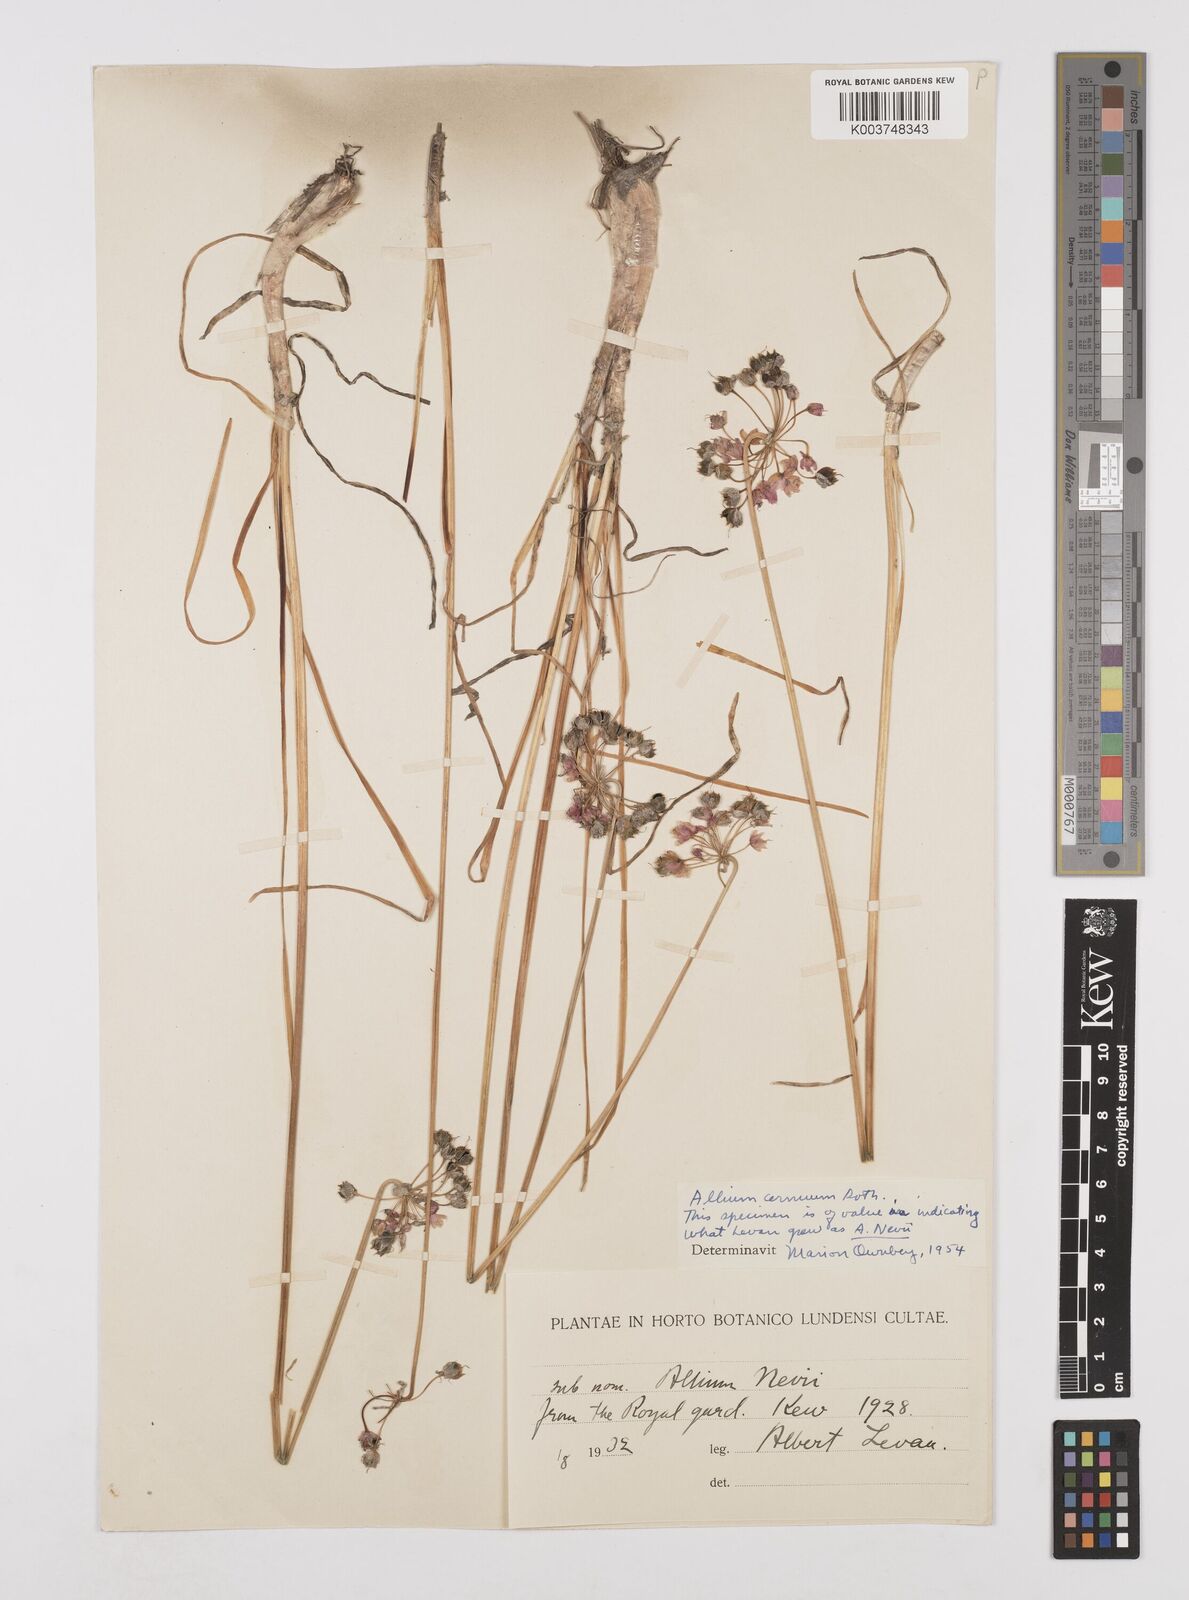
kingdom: Plantae
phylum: Tracheophyta
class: Liliopsida
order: Asparagales
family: Amaryllidaceae
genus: Allium
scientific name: Allium cernuum
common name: Nodding onion
